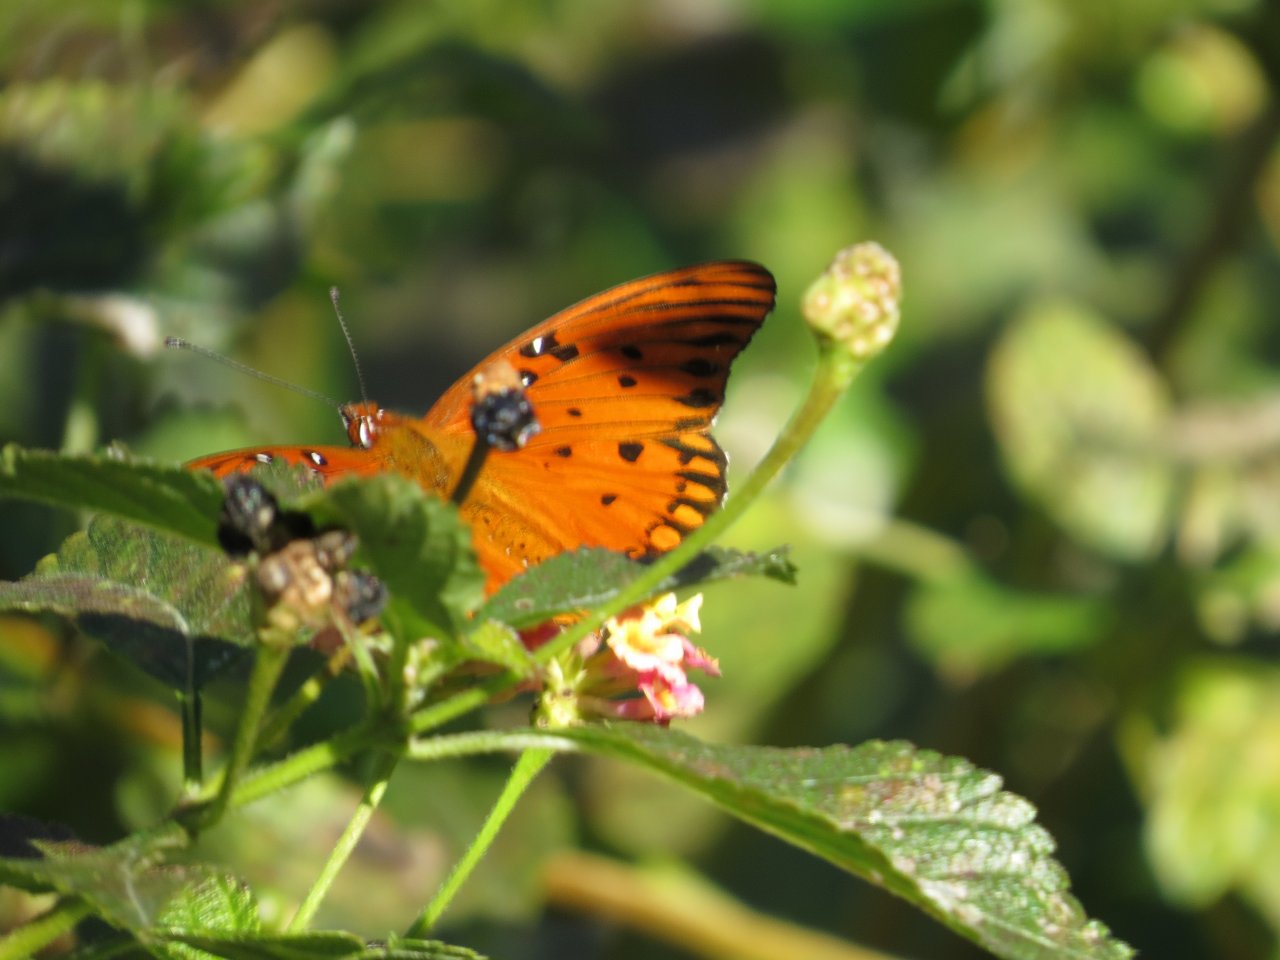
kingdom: Animalia
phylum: Arthropoda
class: Insecta
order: Lepidoptera
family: Nymphalidae
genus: Dione
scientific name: Dione vanillae
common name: Gulf Fritillary
